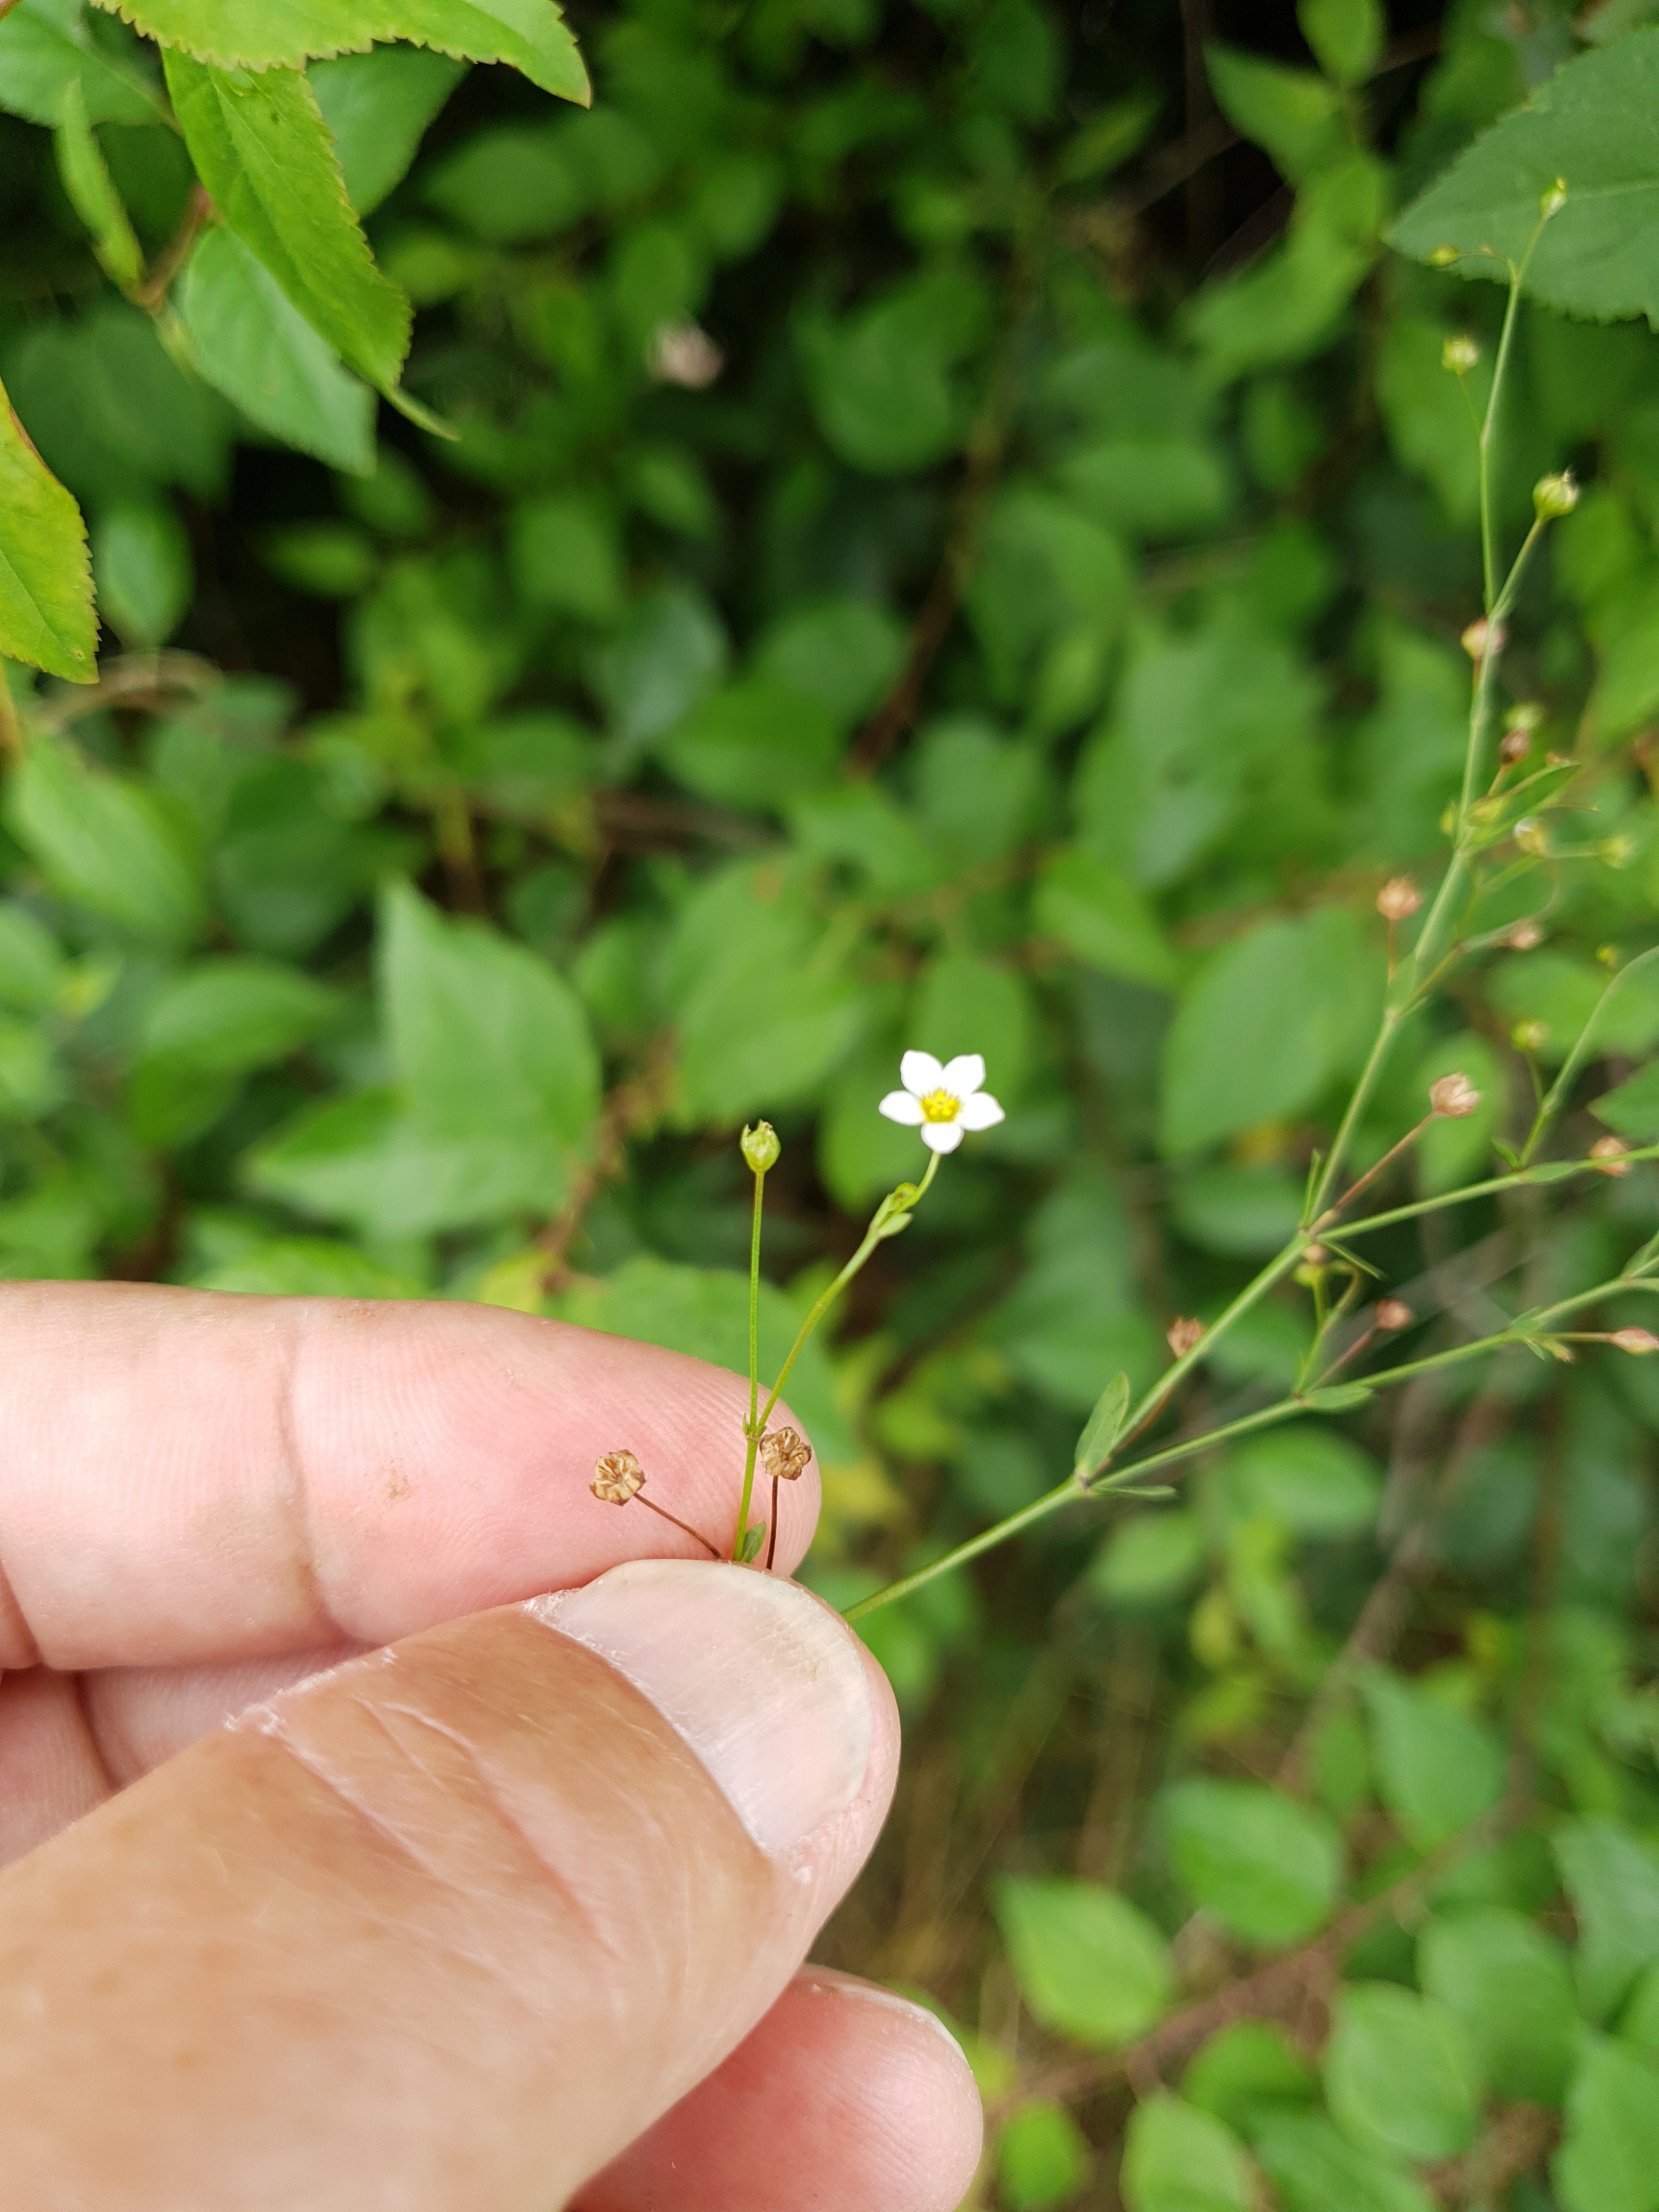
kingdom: Plantae
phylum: Tracheophyta
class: Magnoliopsida
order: Malpighiales
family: Linaceae
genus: Linum
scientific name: Linum catharticum
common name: Vild hør
